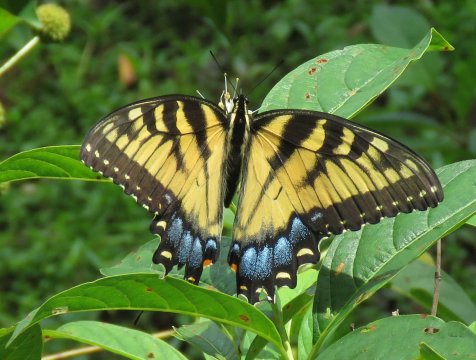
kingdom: Animalia
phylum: Arthropoda
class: Insecta
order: Lepidoptera
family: Papilionidae
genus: Pterourus
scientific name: Pterourus glaucus
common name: Eastern Tiger Swallowtail
